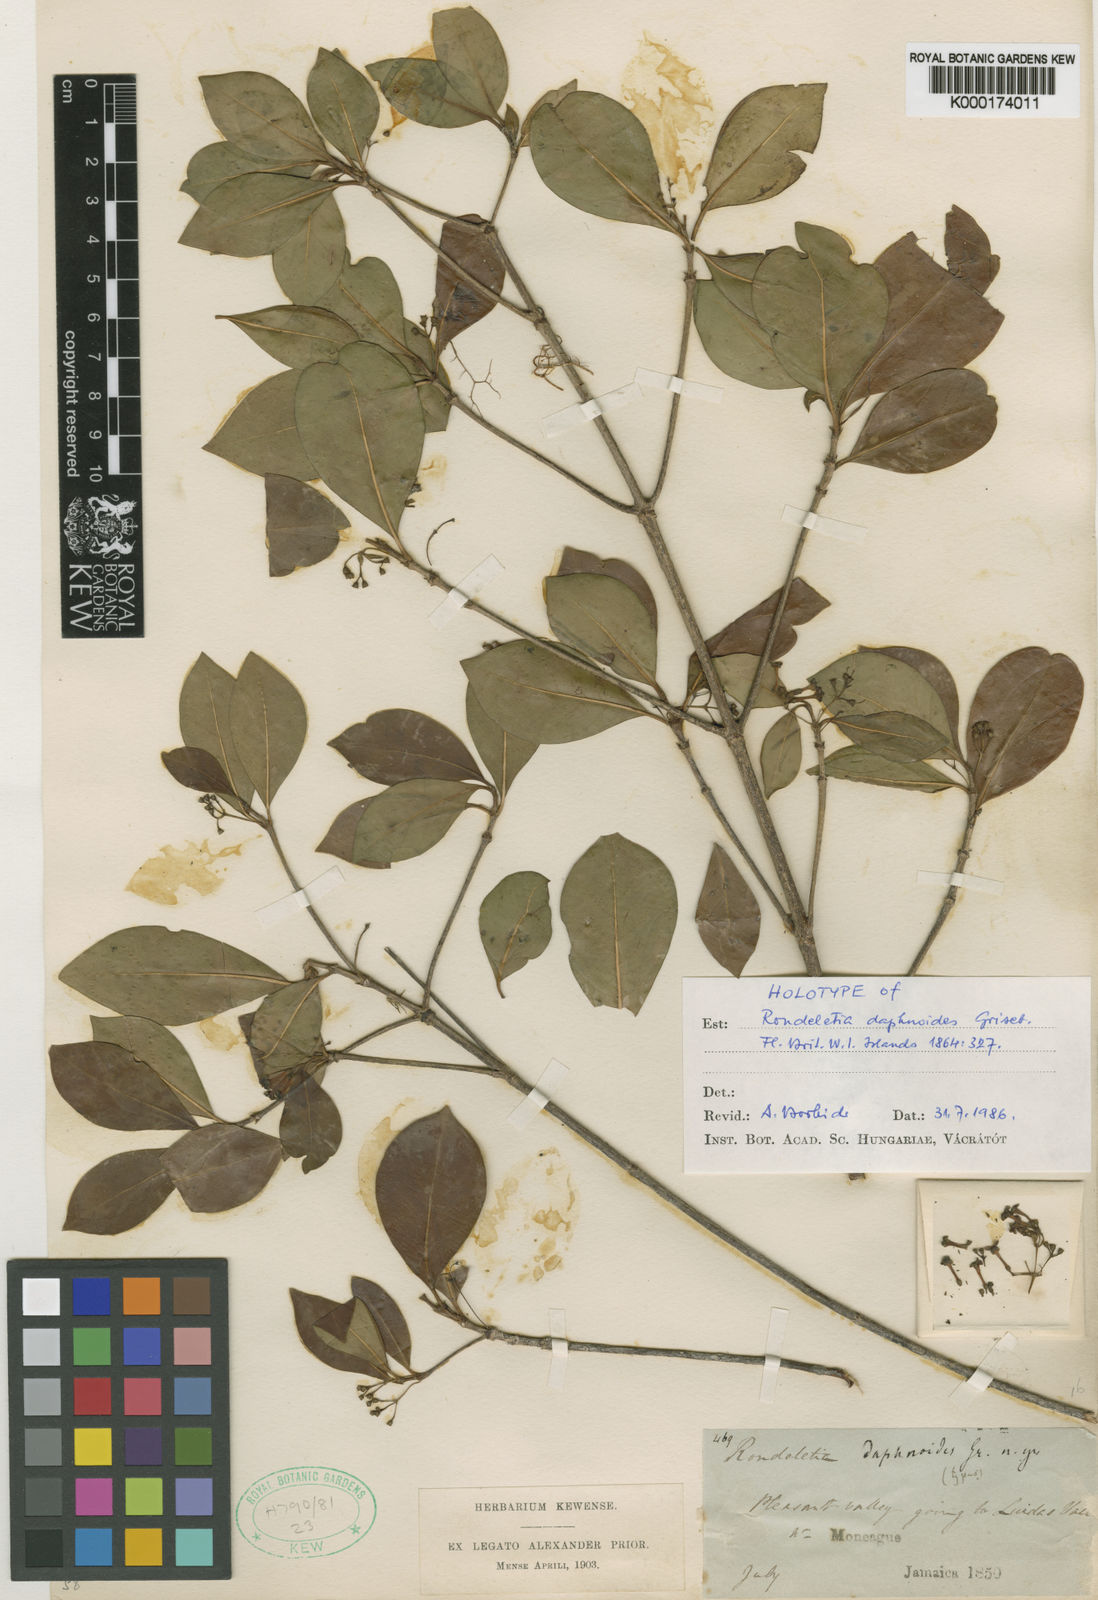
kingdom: Plantae
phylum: Tracheophyta
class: Magnoliopsida
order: Gentianales
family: Rubiaceae
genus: Rondeletia
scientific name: Rondeletia daphnoides
